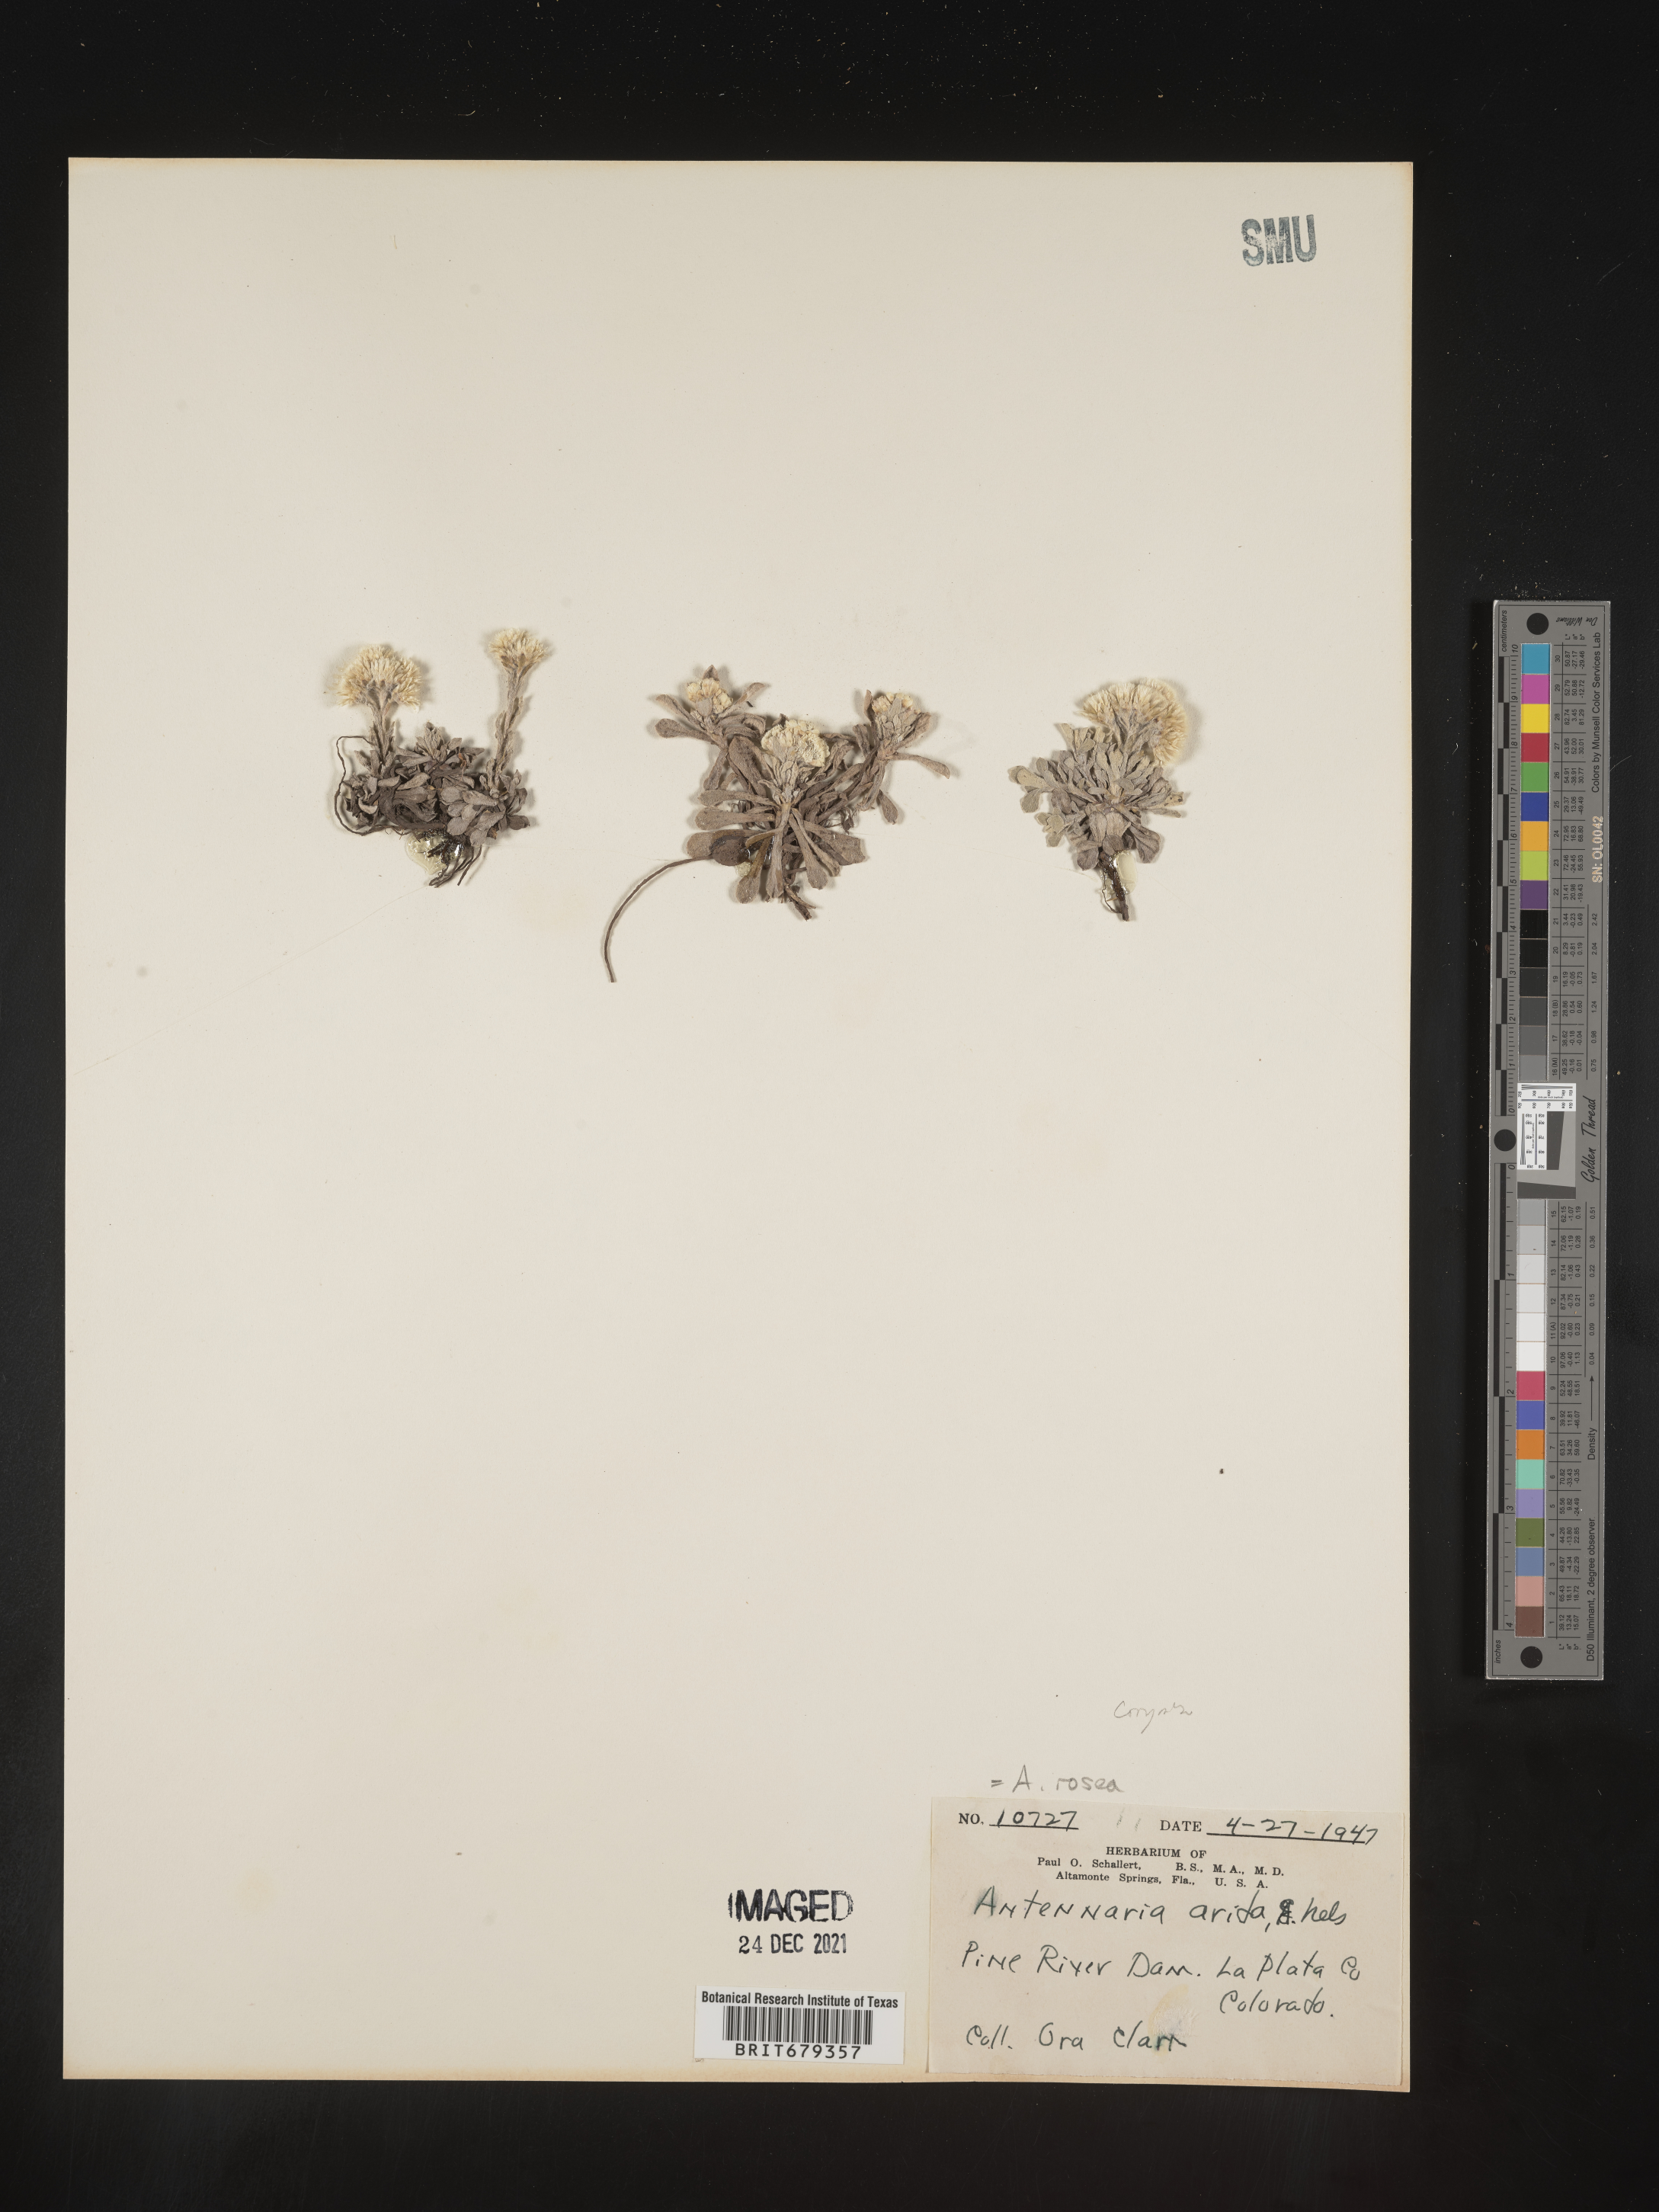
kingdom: Plantae
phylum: Tracheophyta
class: Magnoliopsida
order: Asterales
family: Asteraceae
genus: Antennaria
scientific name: Antennaria corymbosa
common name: Meadow pussytoes
